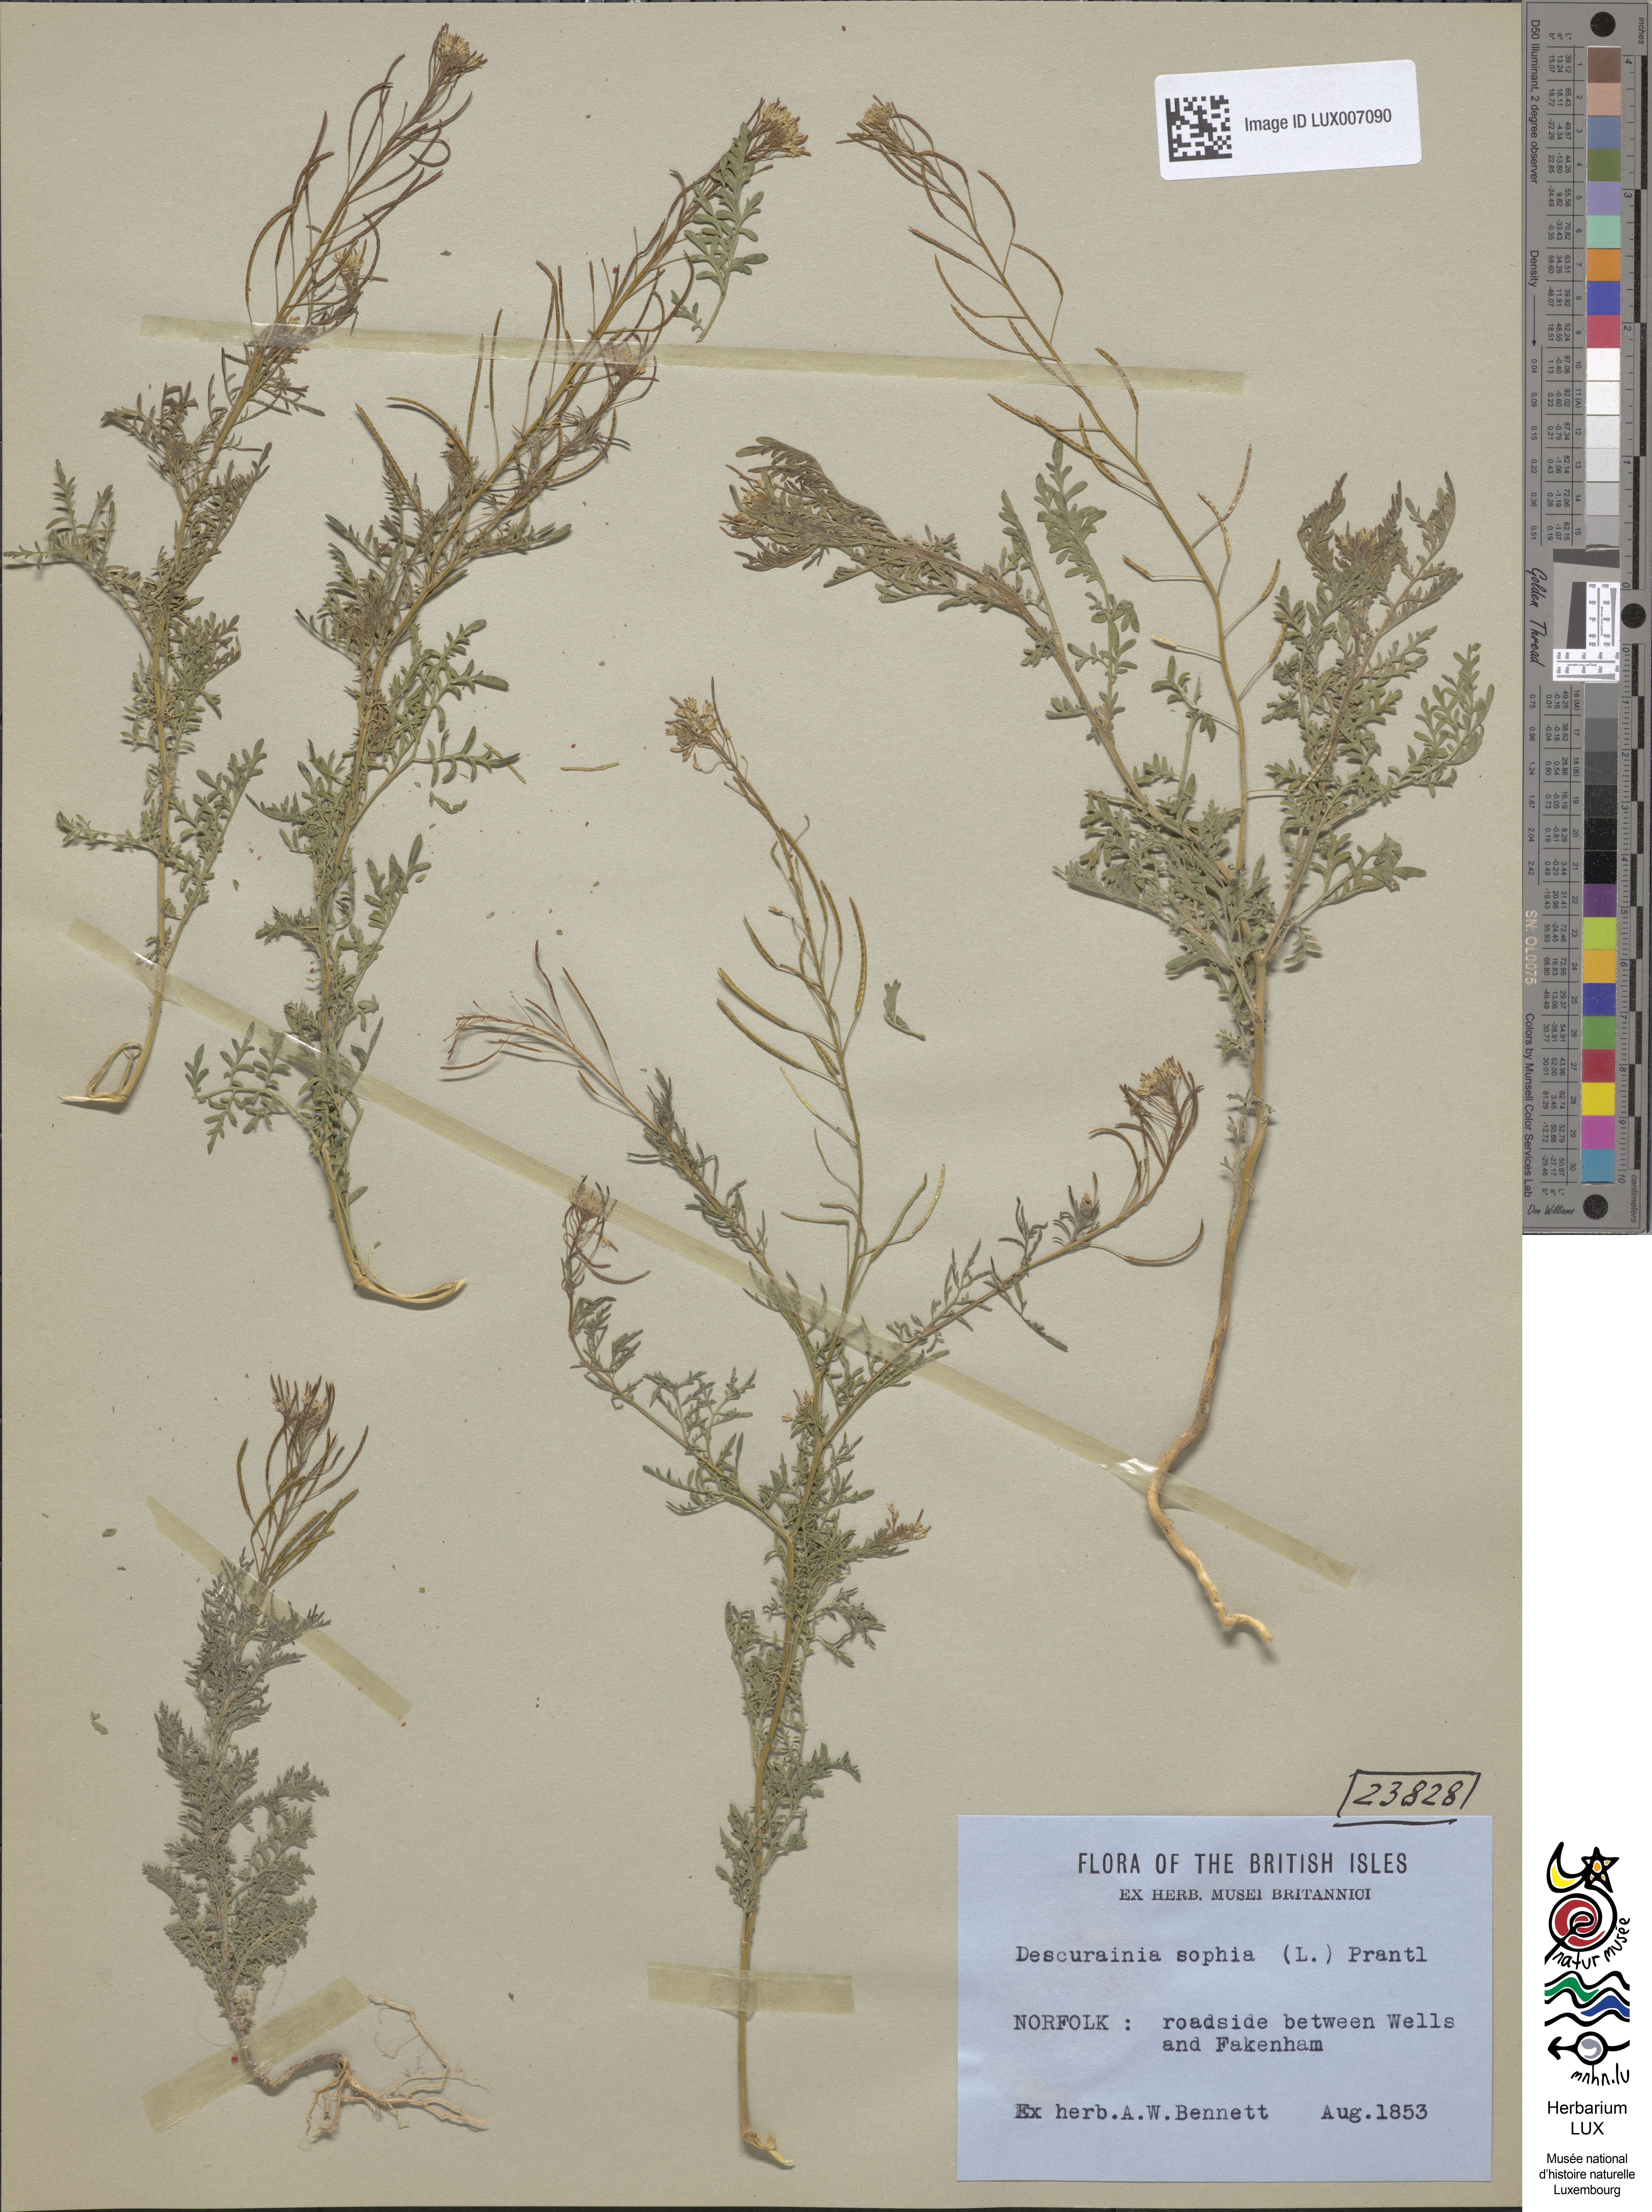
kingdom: Plantae
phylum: Tracheophyta
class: Magnoliopsida
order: Brassicales
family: Brassicaceae
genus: Descurainia
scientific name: Descurainia sophia
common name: Flixweed
